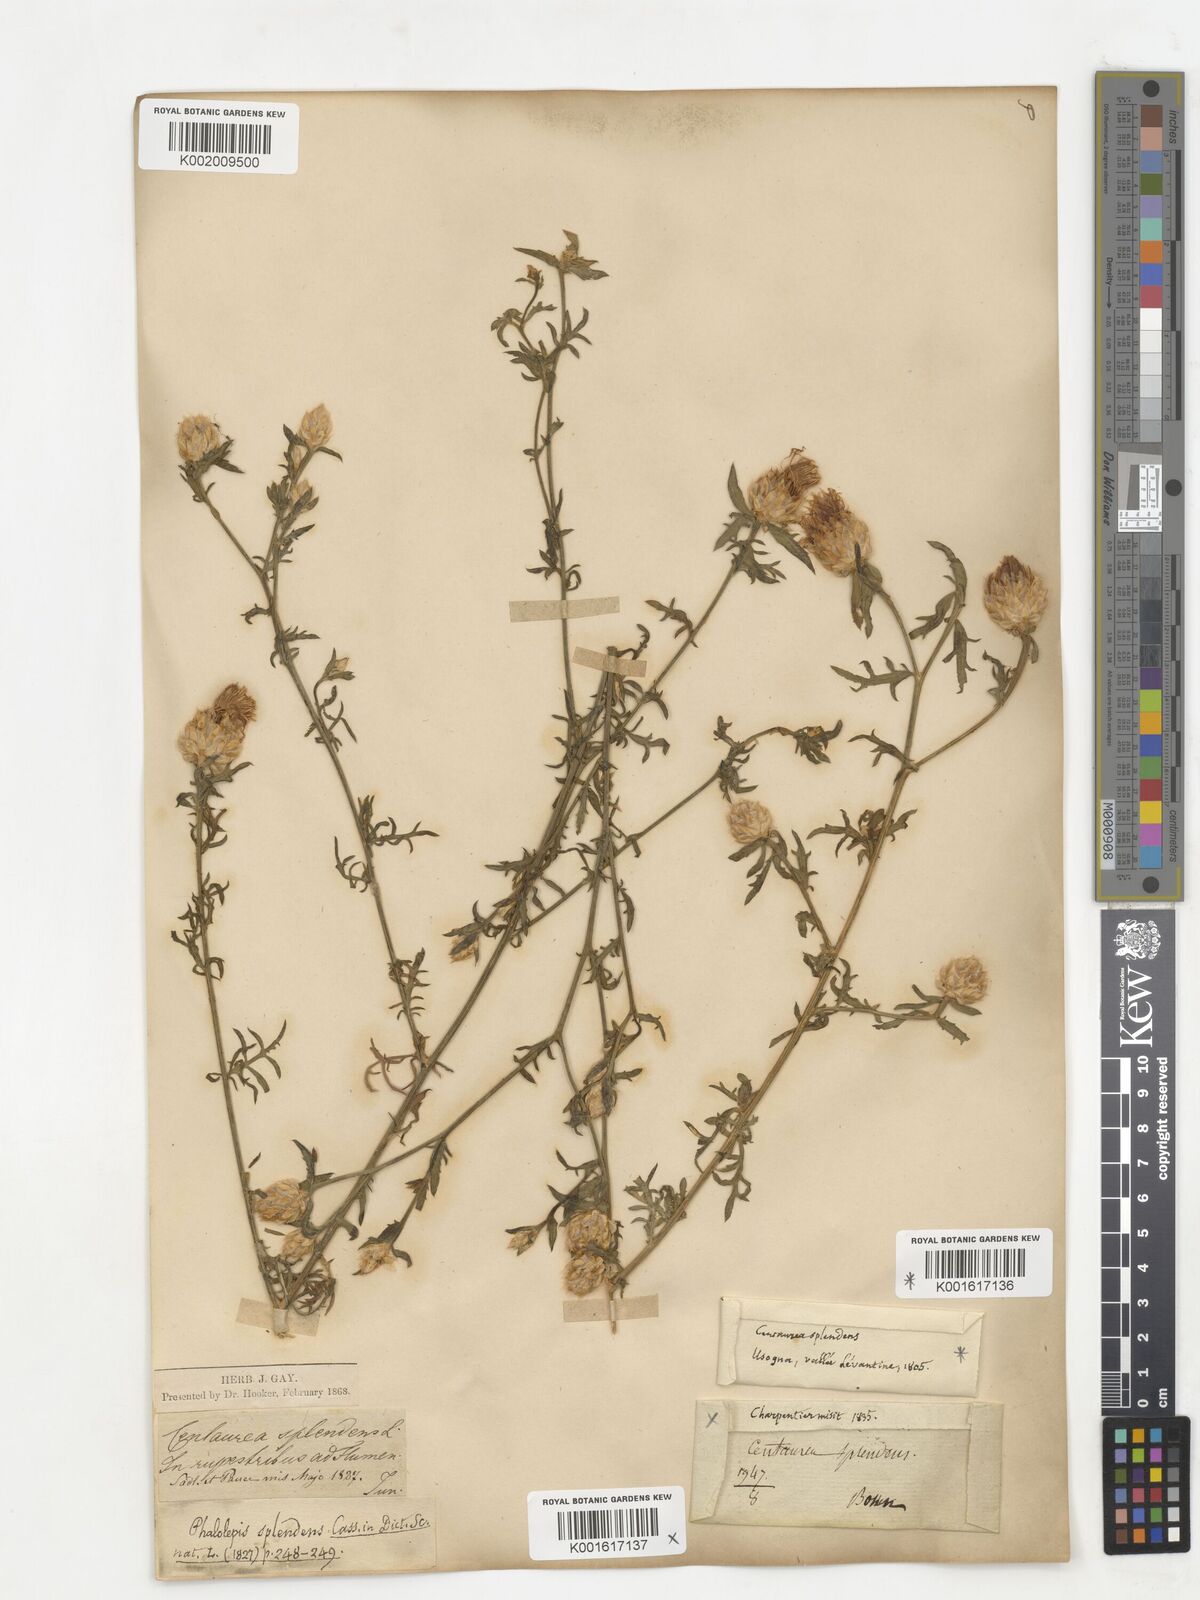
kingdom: Plantae
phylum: Tracheophyta
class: Magnoliopsida
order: Asterales
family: Asteraceae
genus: Centaurea
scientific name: Centaurea splendens
